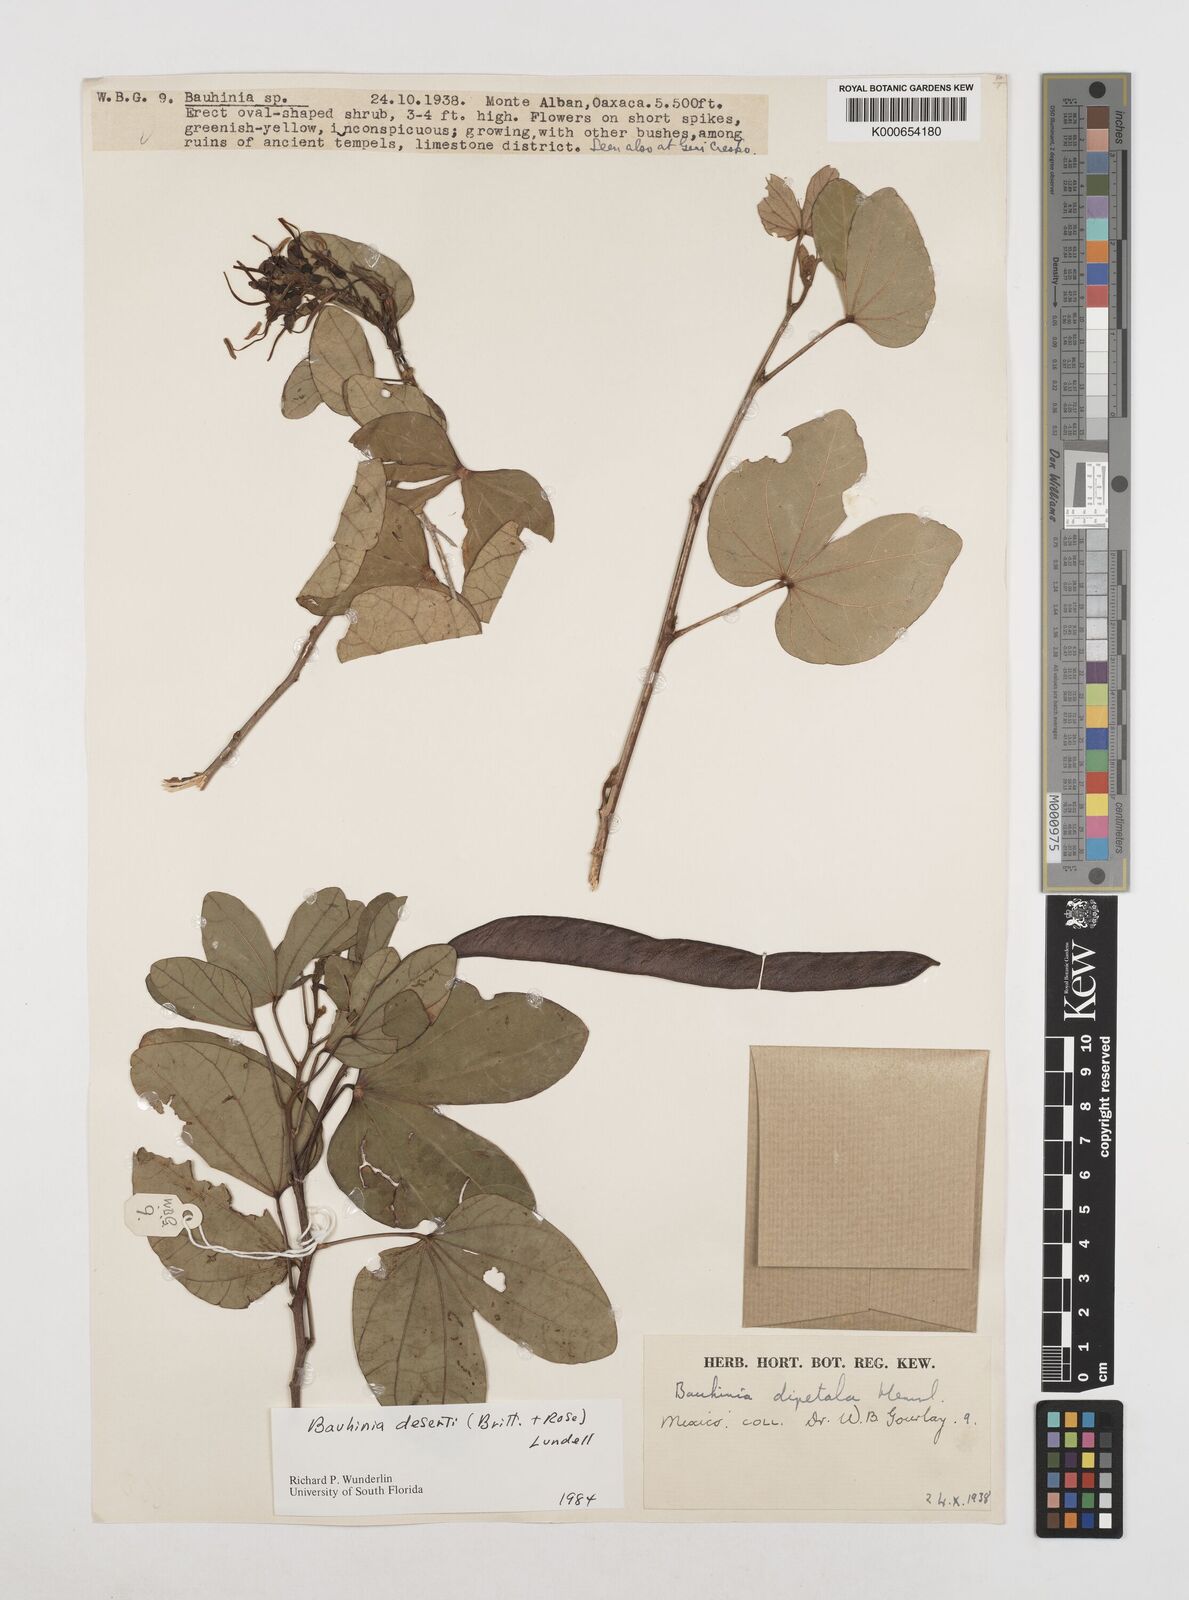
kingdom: Plantae
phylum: Tracheophyta
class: Magnoliopsida
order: Fabales
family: Fabaceae
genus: Bauhinia
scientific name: Bauhinia deserti
